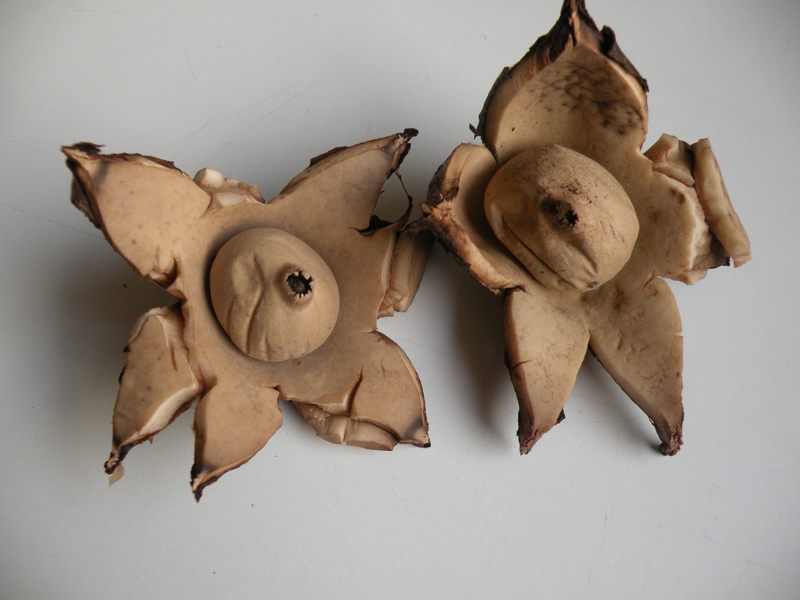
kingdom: Fungi
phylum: Basidiomycota
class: Agaricomycetes
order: Geastrales
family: Geastraceae
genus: Geastrum
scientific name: Geastrum michelianum
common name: kødet stjernebold
